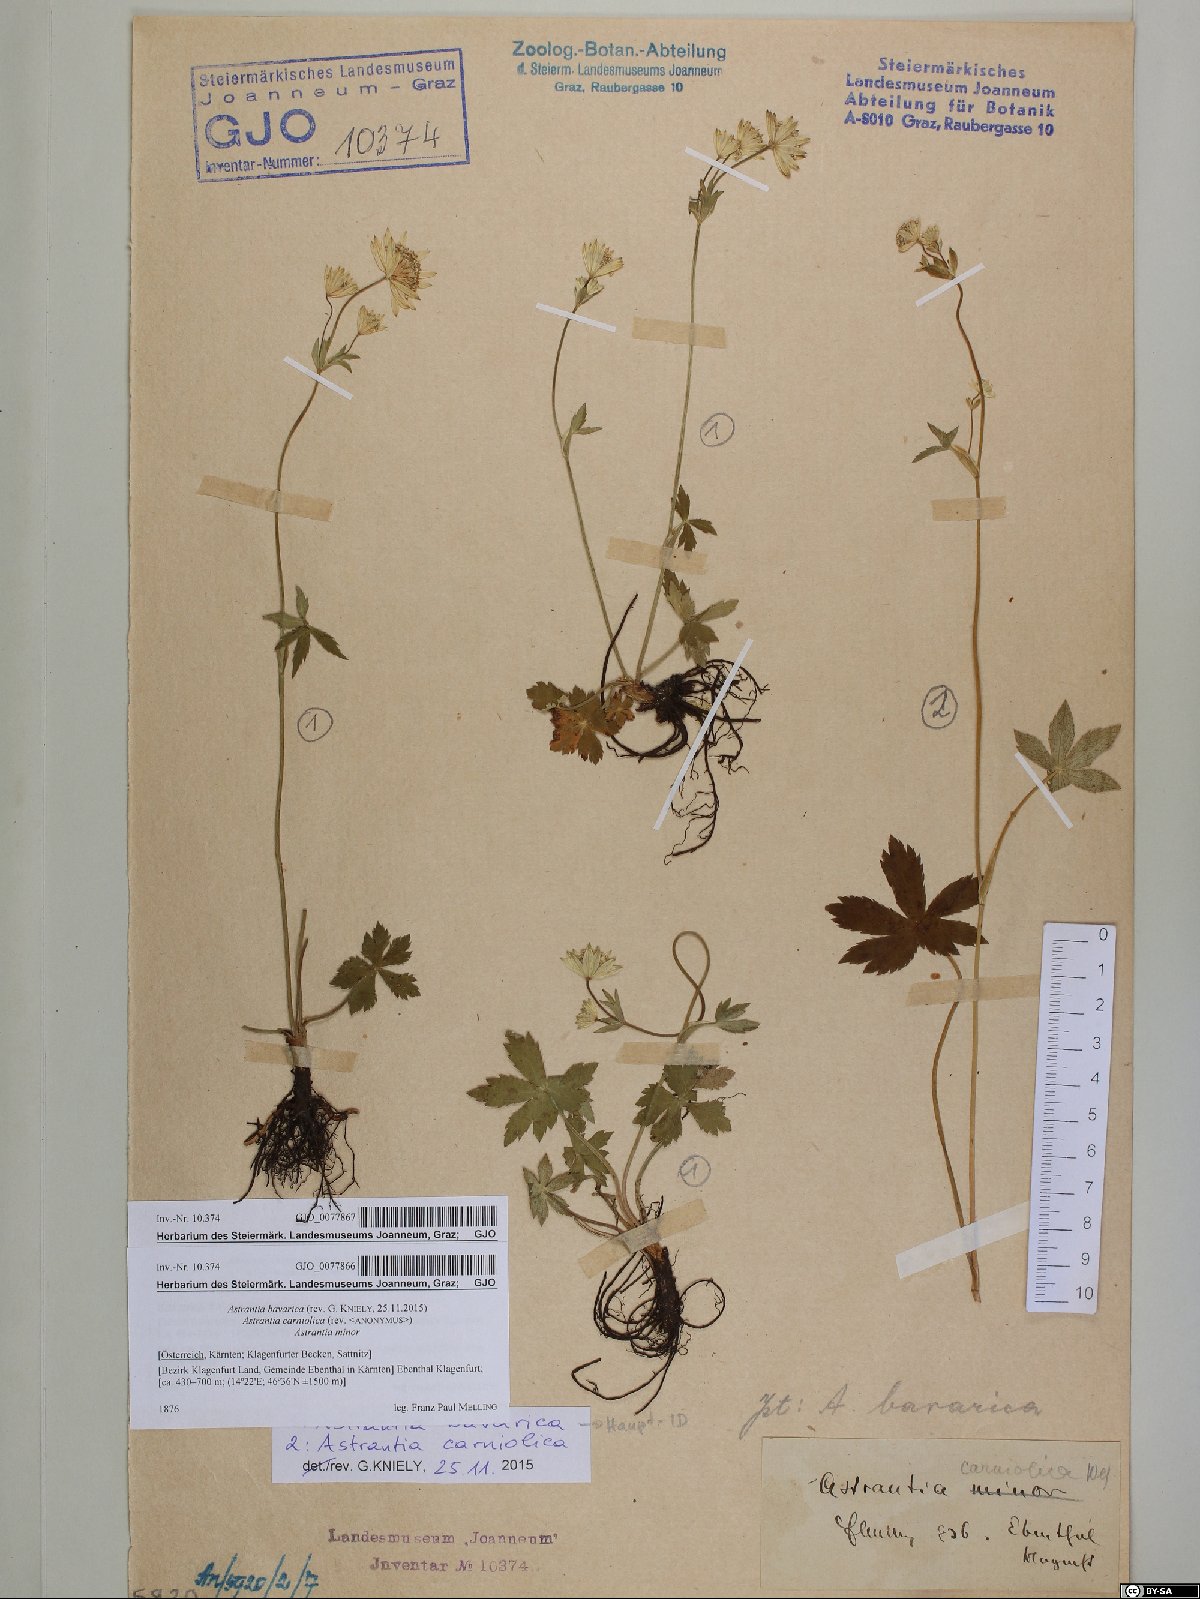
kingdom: Plantae
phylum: Tracheophyta
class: Magnoliopsida
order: Apiales
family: Apiaceae
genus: Astrantia
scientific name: Astrantia bavarica
